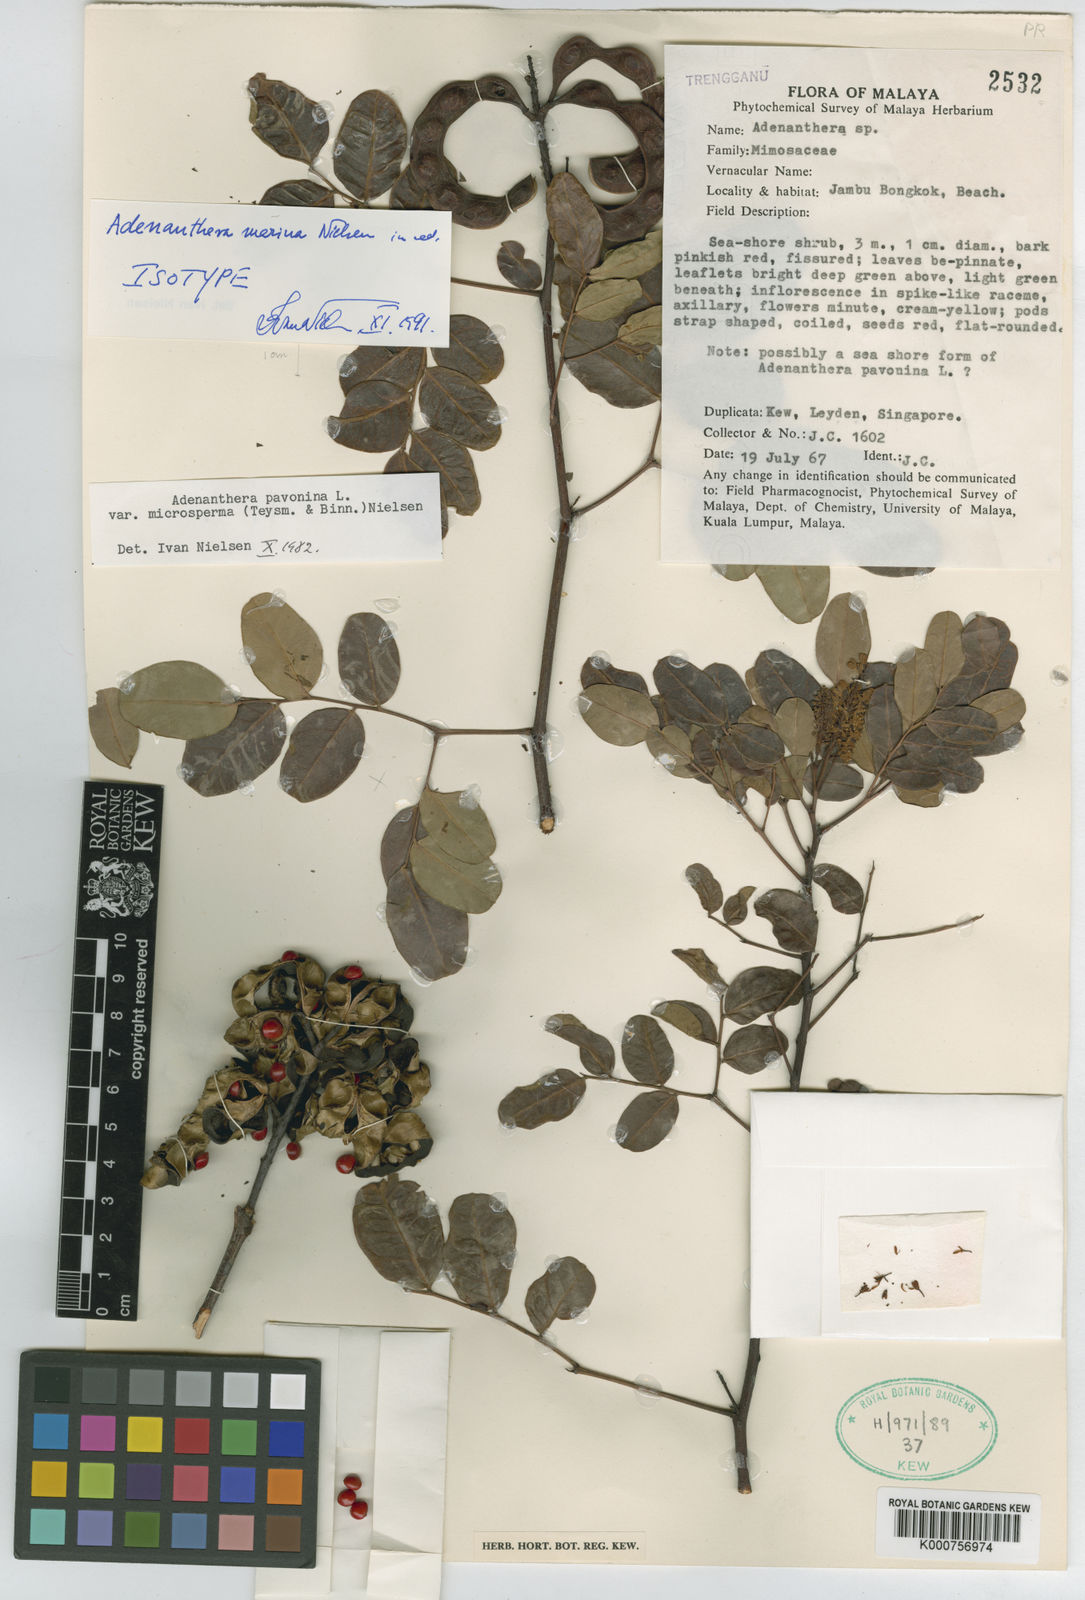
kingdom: Plantae
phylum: Tracheophyta
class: Magnoliopsida
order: Fabales
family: Fabaceae
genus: Adenanthera
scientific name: Adenanthera marina
